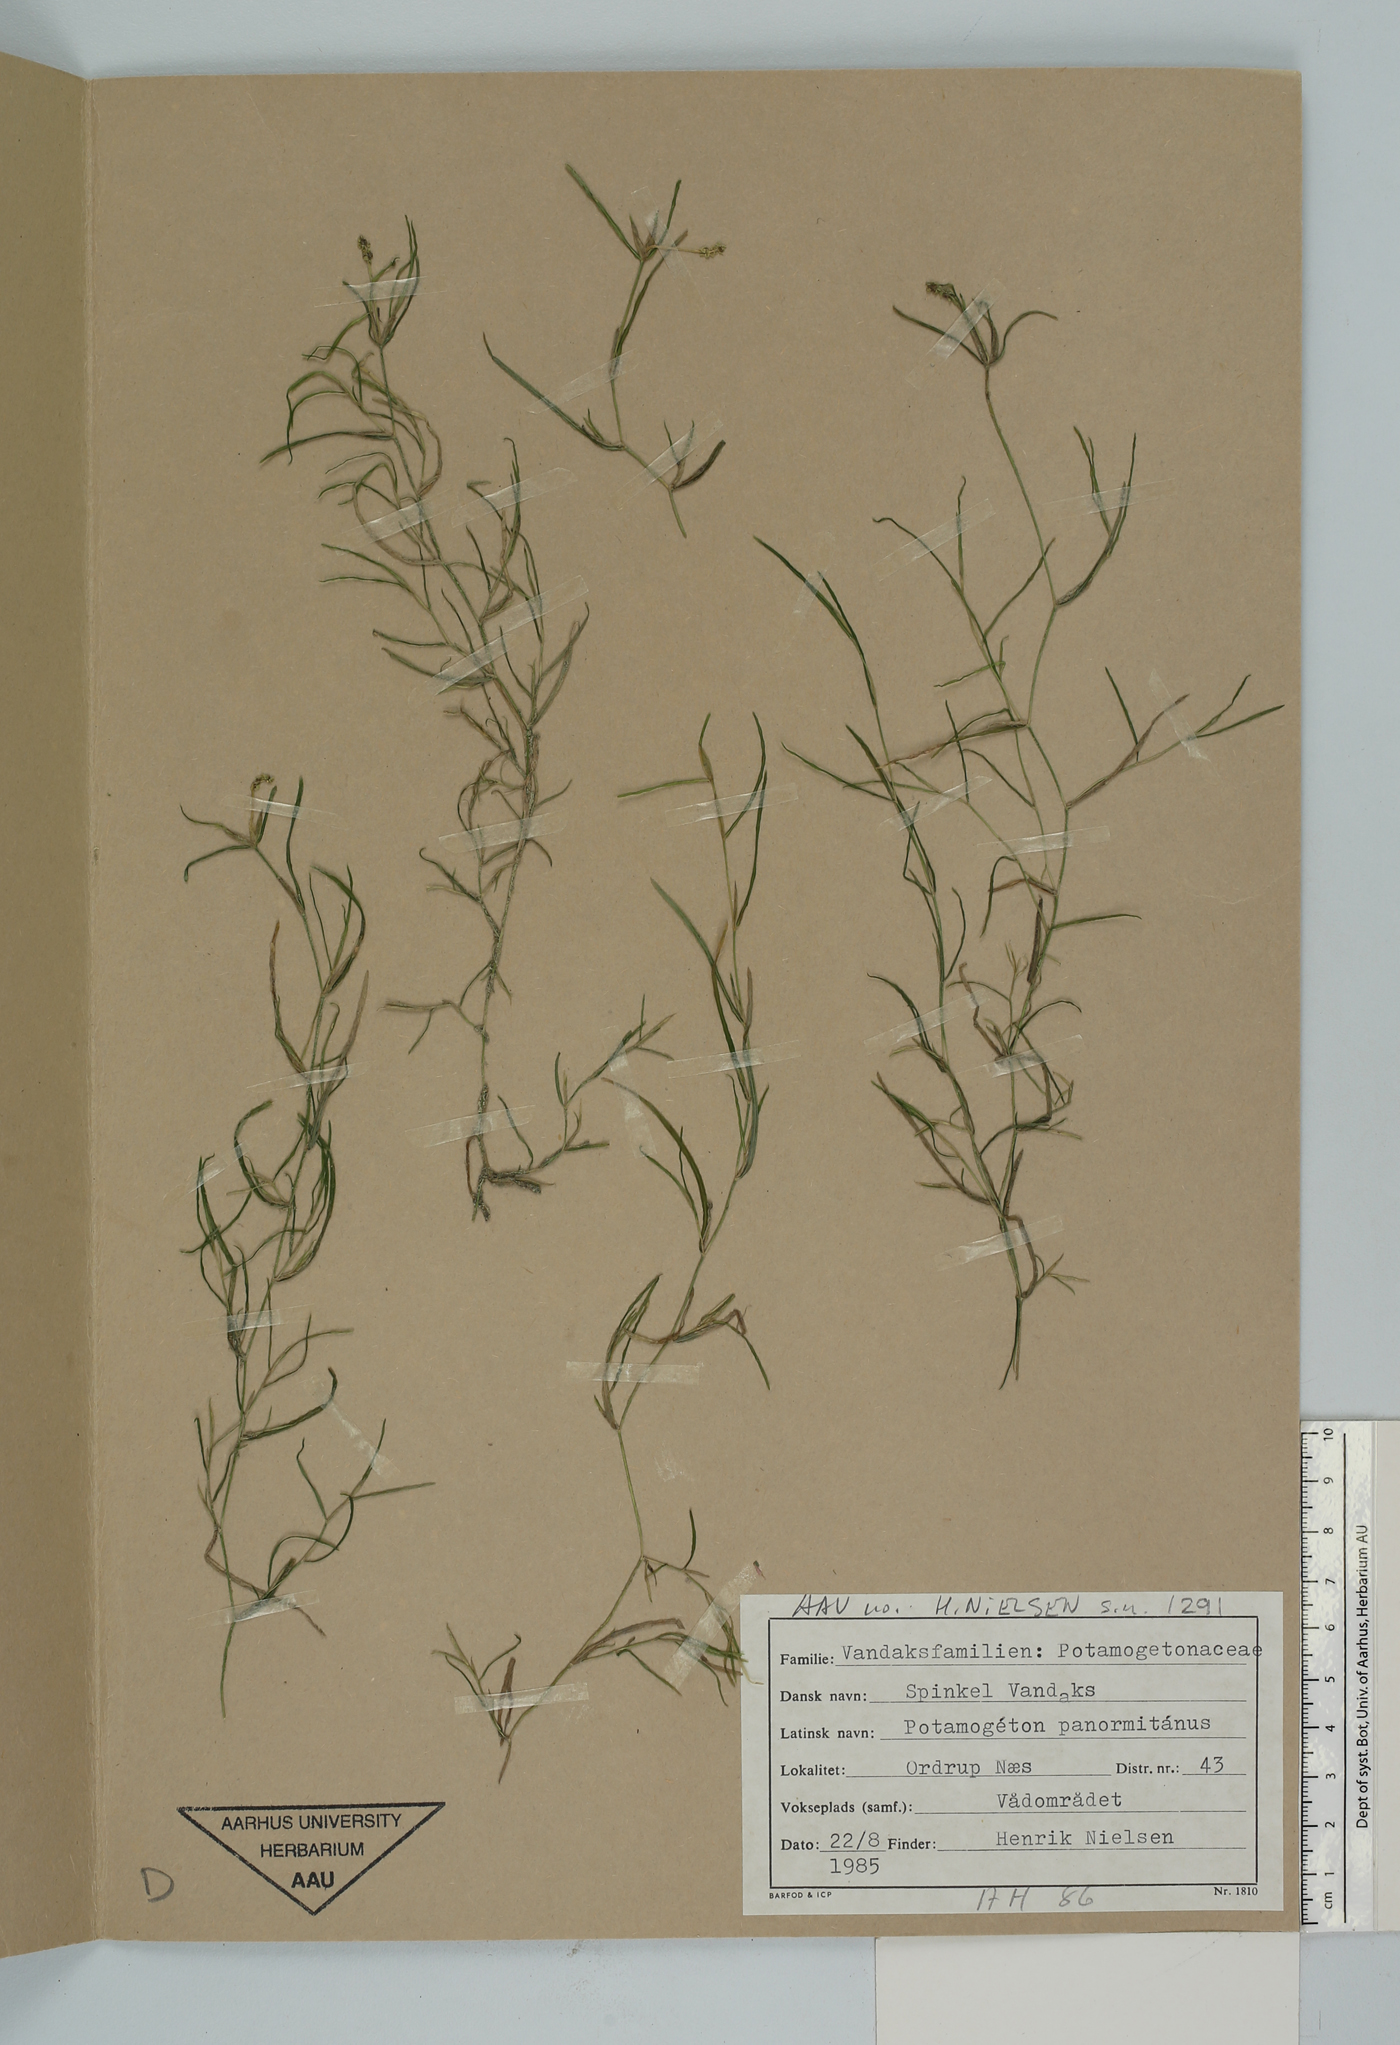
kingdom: Plantae
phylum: Tracheophyta
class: Liliopsida
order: Alismatales
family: Potamogetonaceae
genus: Potamogeton
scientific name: Potamogeton pusillus
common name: Lesser pondweed
